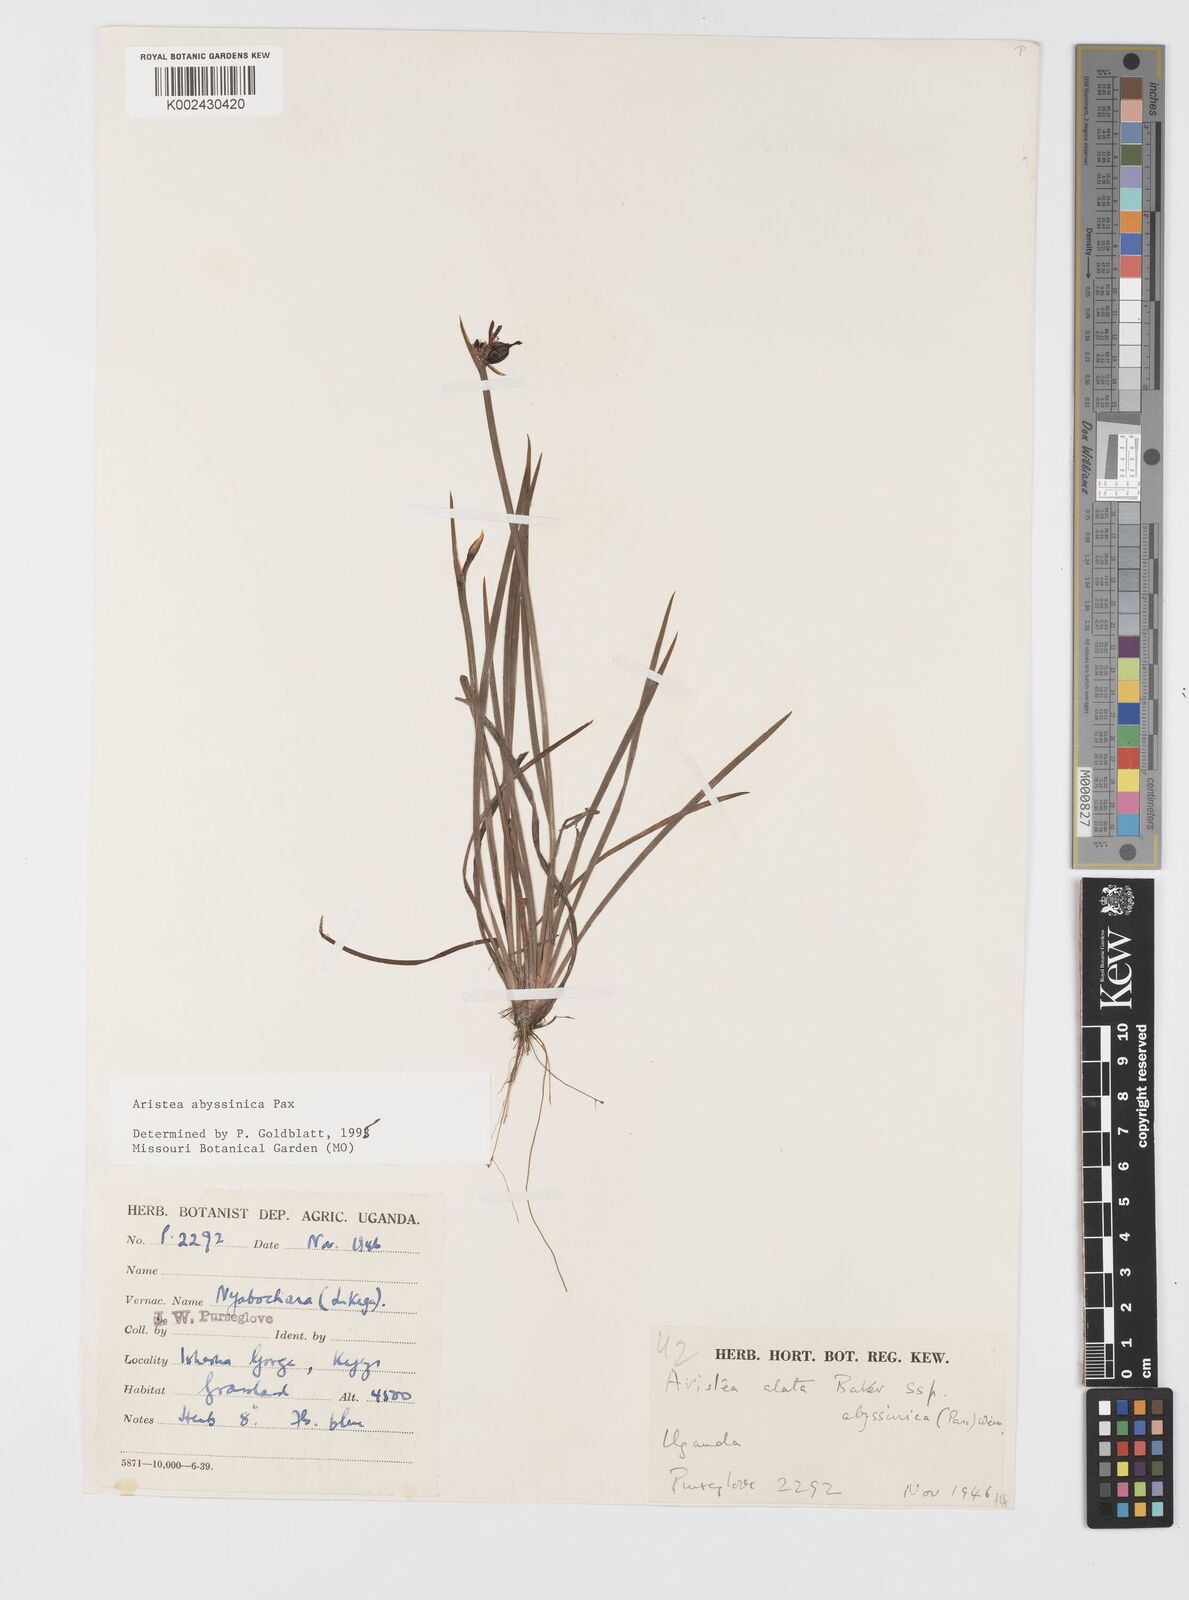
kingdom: Plantae
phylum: Tracheophyta
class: Liliopsida
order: Asparagales
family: Iridaceae
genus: Aristea
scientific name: Aristea abyssinica
